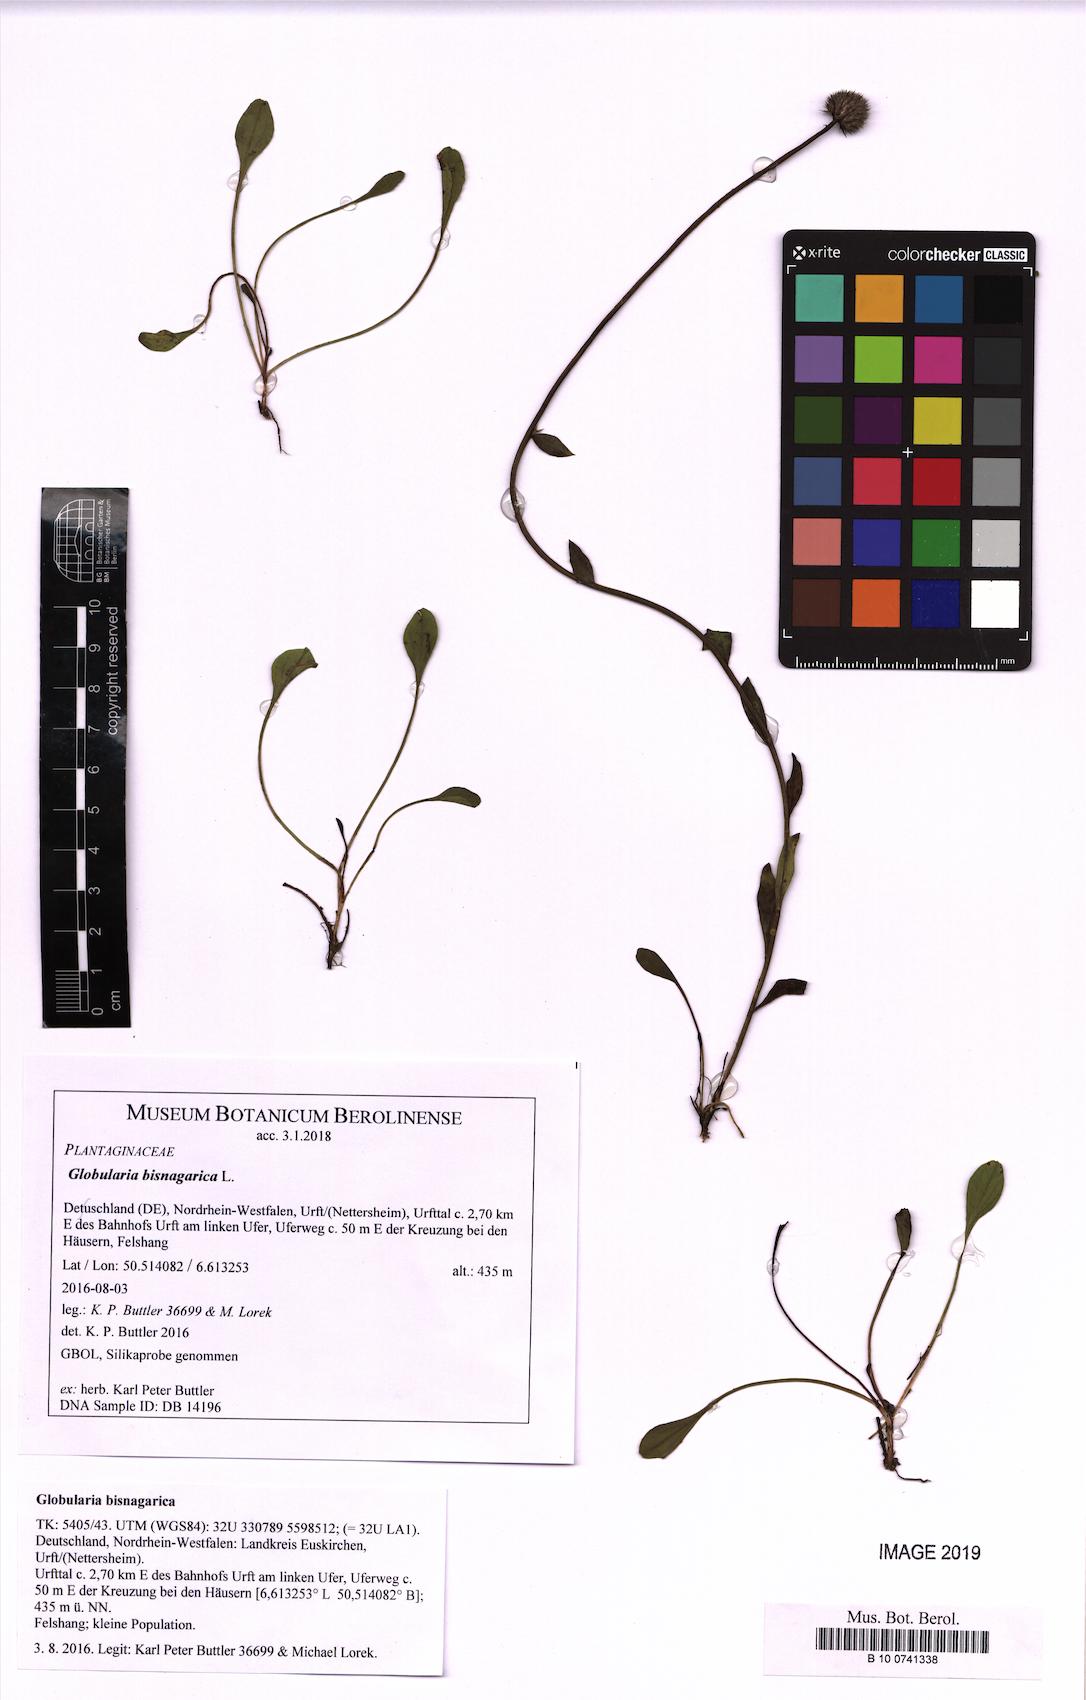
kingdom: Plantae
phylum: Tracheophyta
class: Magnoliopsida
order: Lamiales
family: Plantaginaceae
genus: Globularia
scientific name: Globularia bisnagarica
